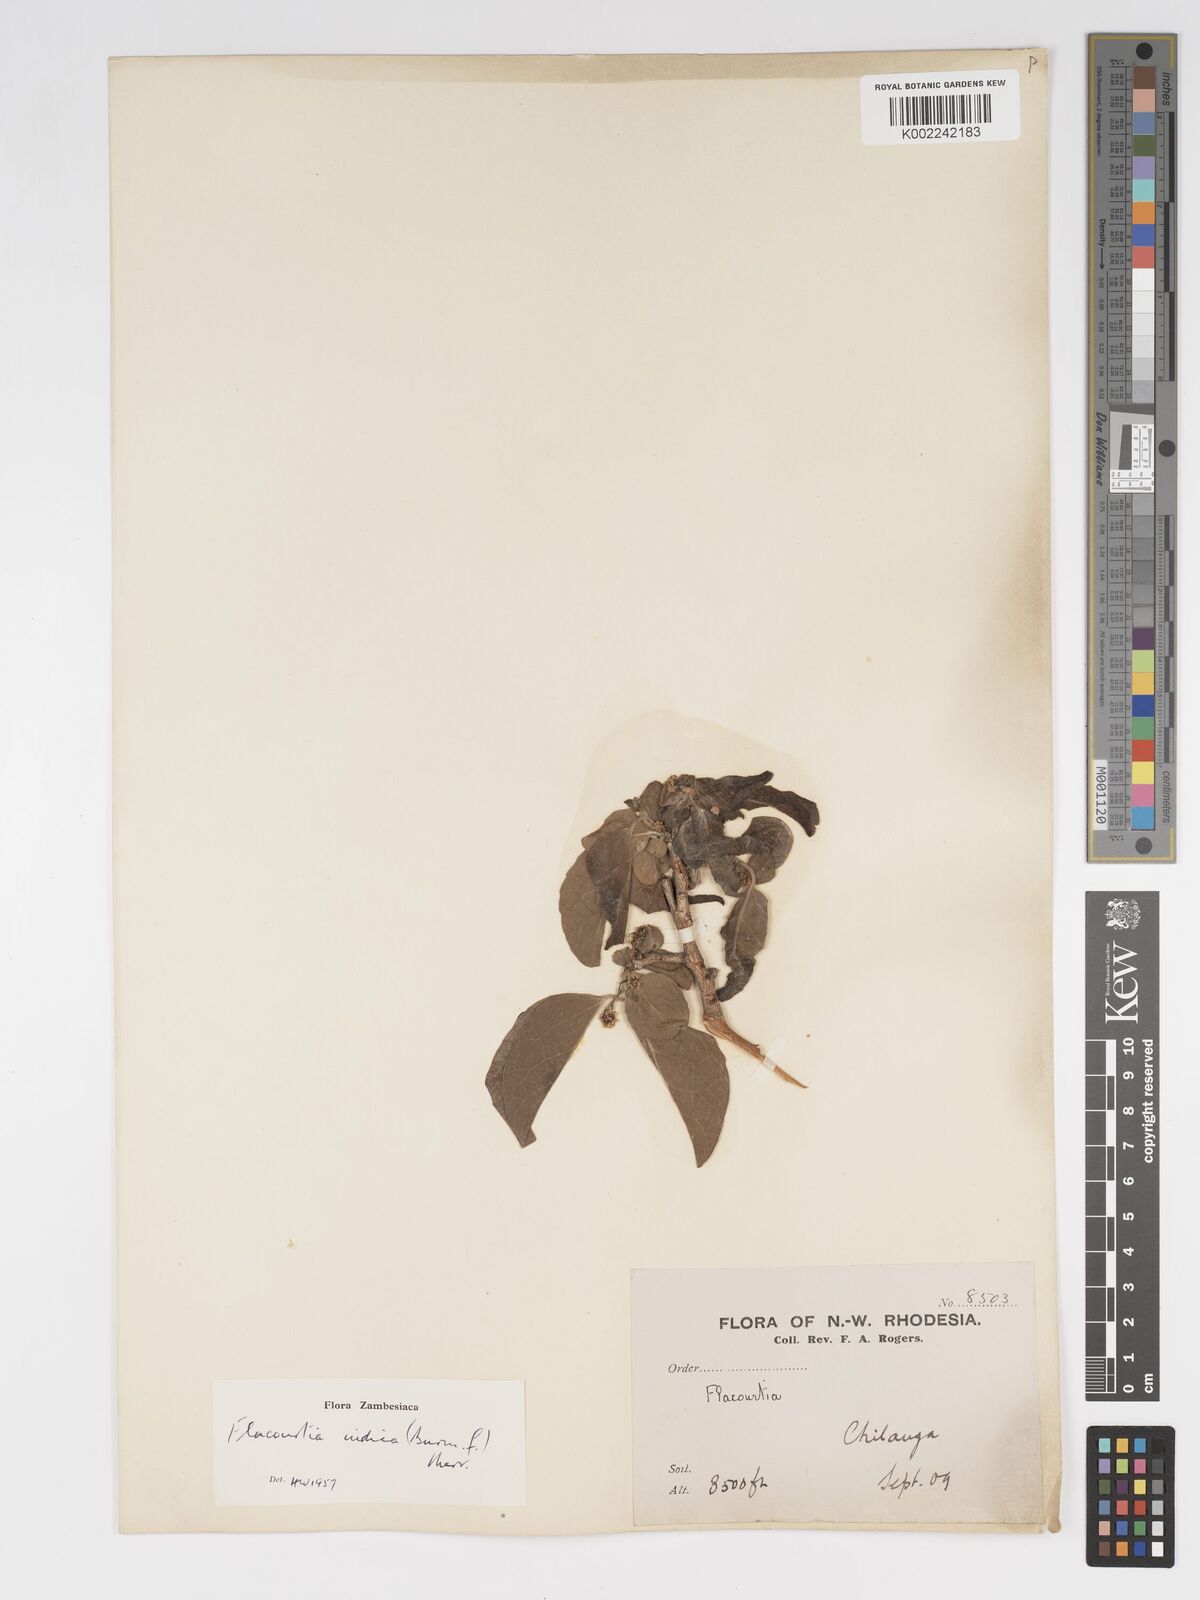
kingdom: Plantae
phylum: Tracheophyta
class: Magnoliopsida
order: Malpighiales
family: Salicaceae
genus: Flacourtia
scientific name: Flacourtia indica
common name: Governor's plum
